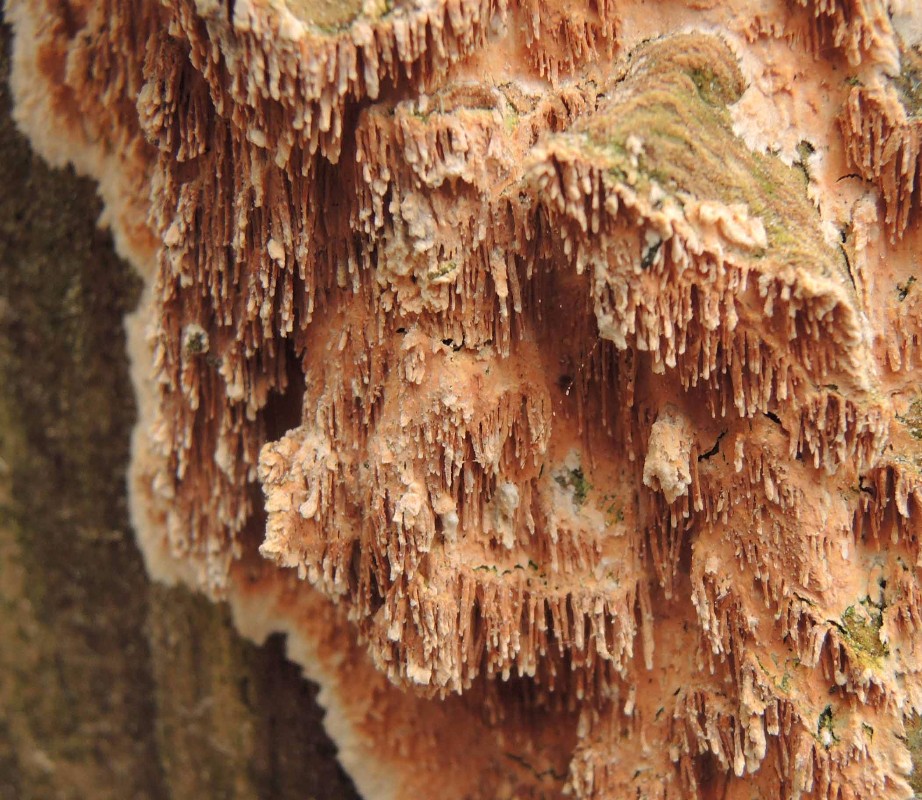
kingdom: Fungi
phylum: Basidiomycota
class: Agaricomycetes
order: Polyporales
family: Steccherinaceae
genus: Steccherinum
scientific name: Steccherinum robustius
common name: stor skønpig
